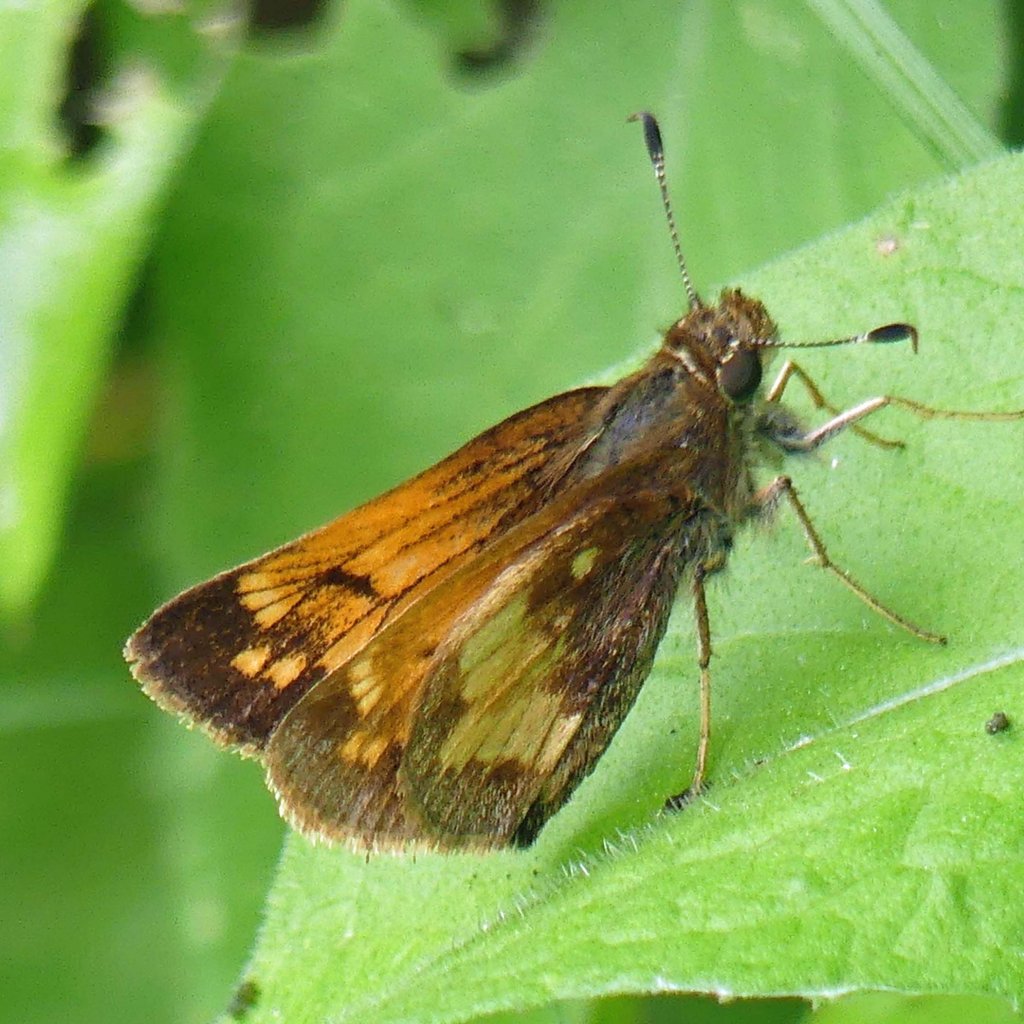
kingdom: Animalia
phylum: Arthropoda
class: Insecta
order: Lepidoptera
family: Hesperiidae
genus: Lon
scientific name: Lon hobomok
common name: Hobomok Skipper
